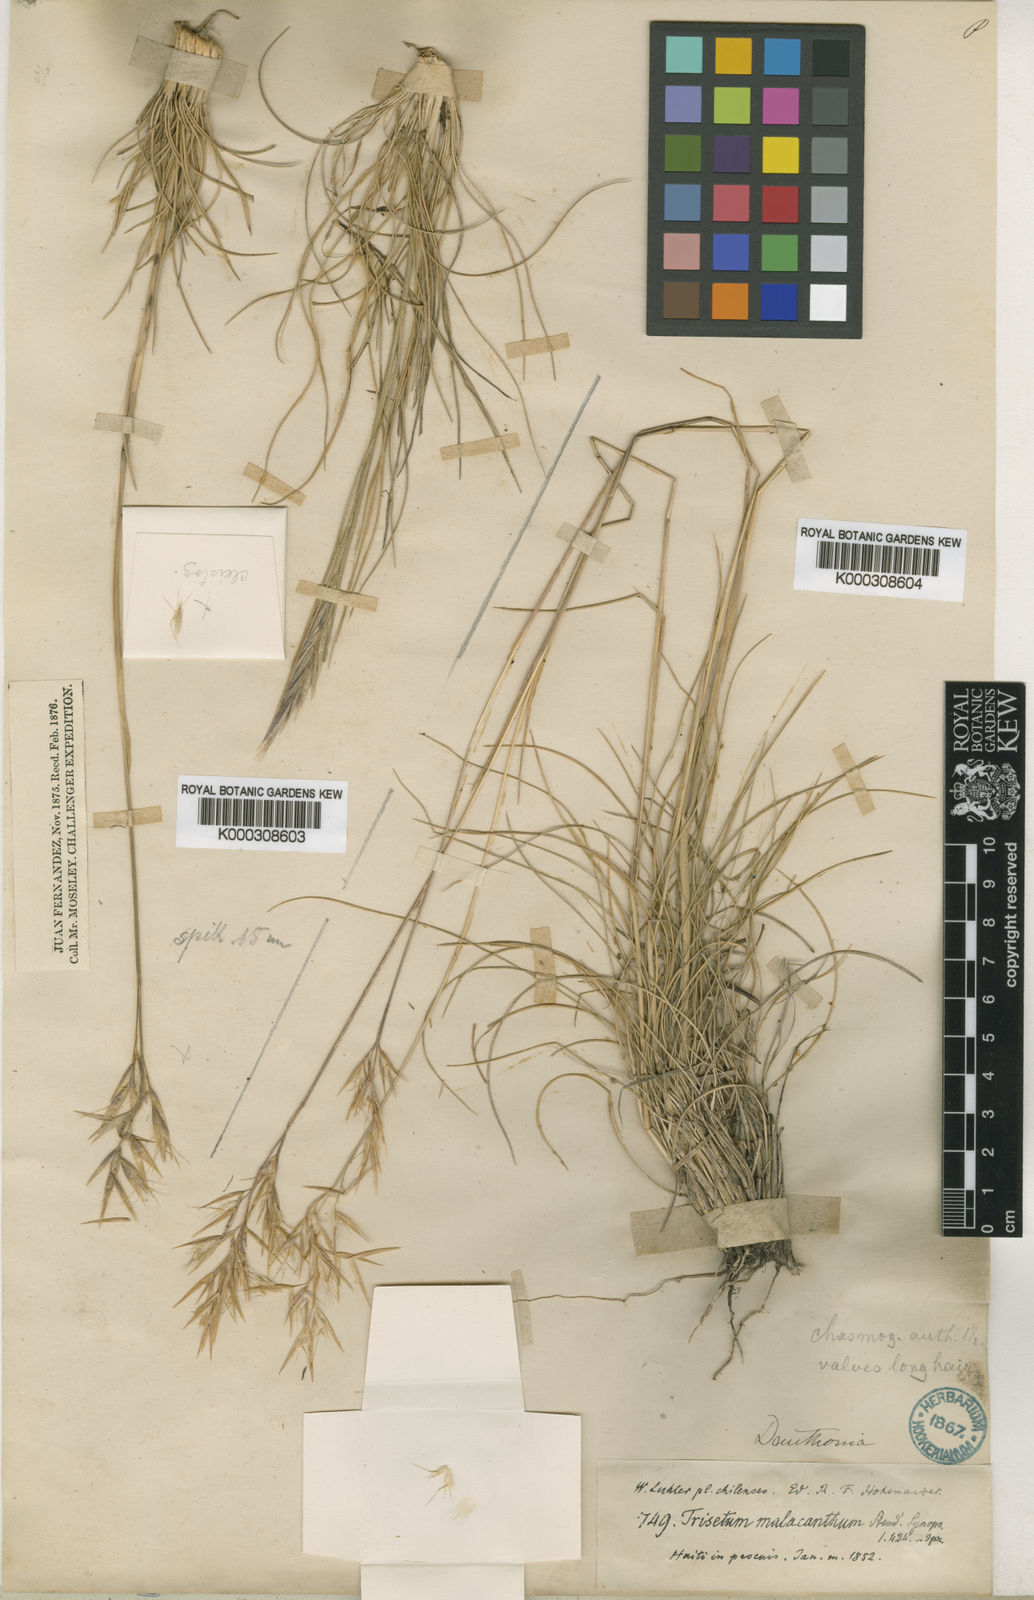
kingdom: Plantae
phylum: Tracheophyta
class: Liliopsida
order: Poales
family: Poaceae
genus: Danthonia
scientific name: Danthonia malacantha
